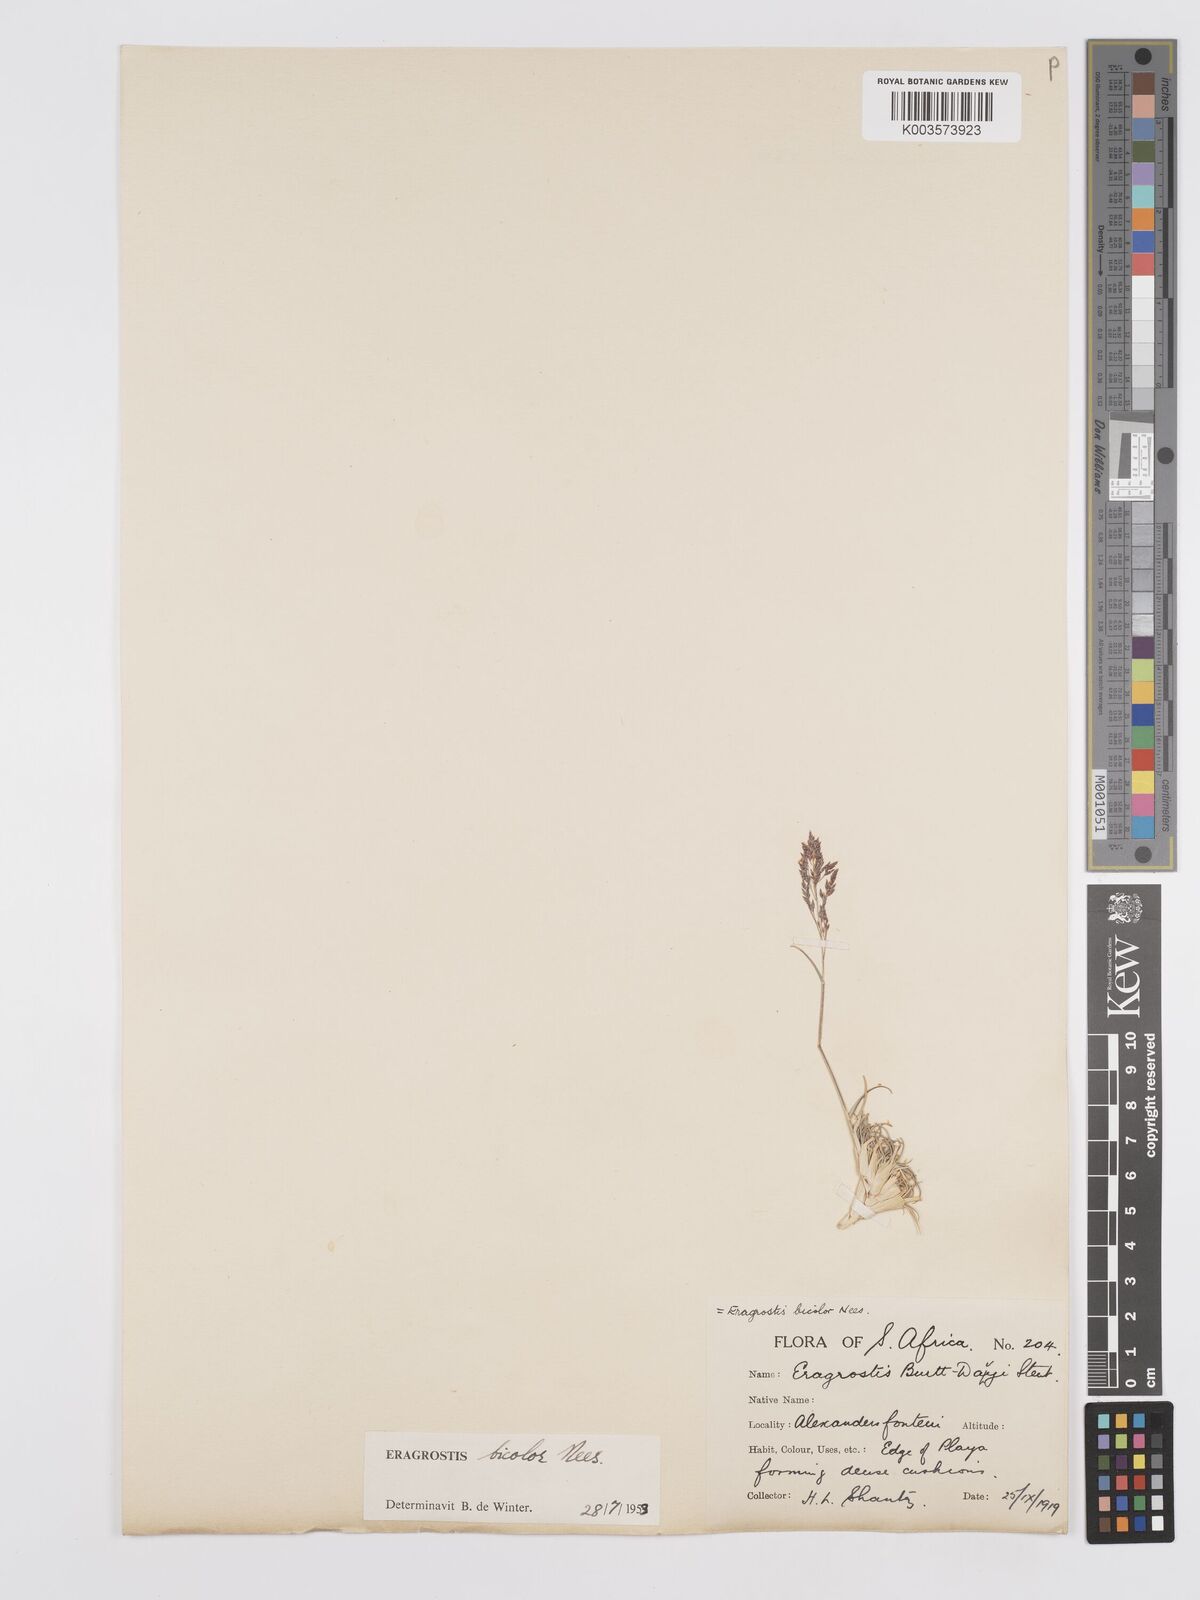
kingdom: Plantae
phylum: Tracheophyta
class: Liliopsida
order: Poales
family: Poaceae
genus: Eragrostis
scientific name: Eragrostis
